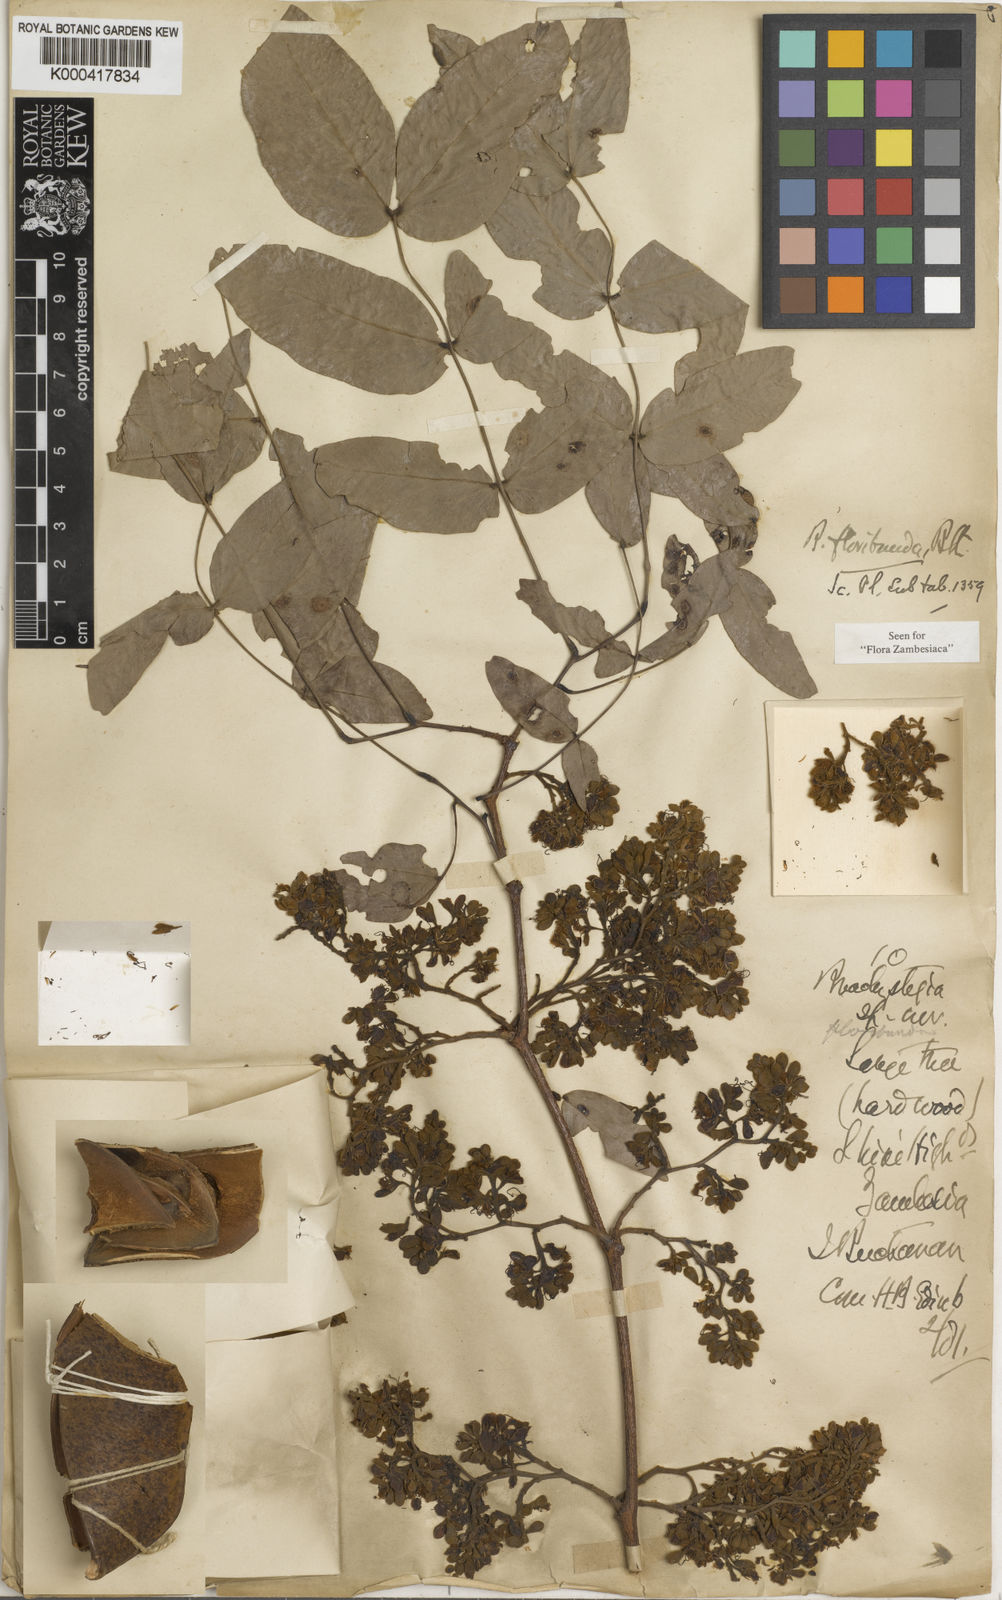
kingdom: Plantae
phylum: Tracheophyta
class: Magnoliopsida
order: Fabales
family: Fabaceae
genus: Brachystegia
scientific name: Brachystegia floribunda
